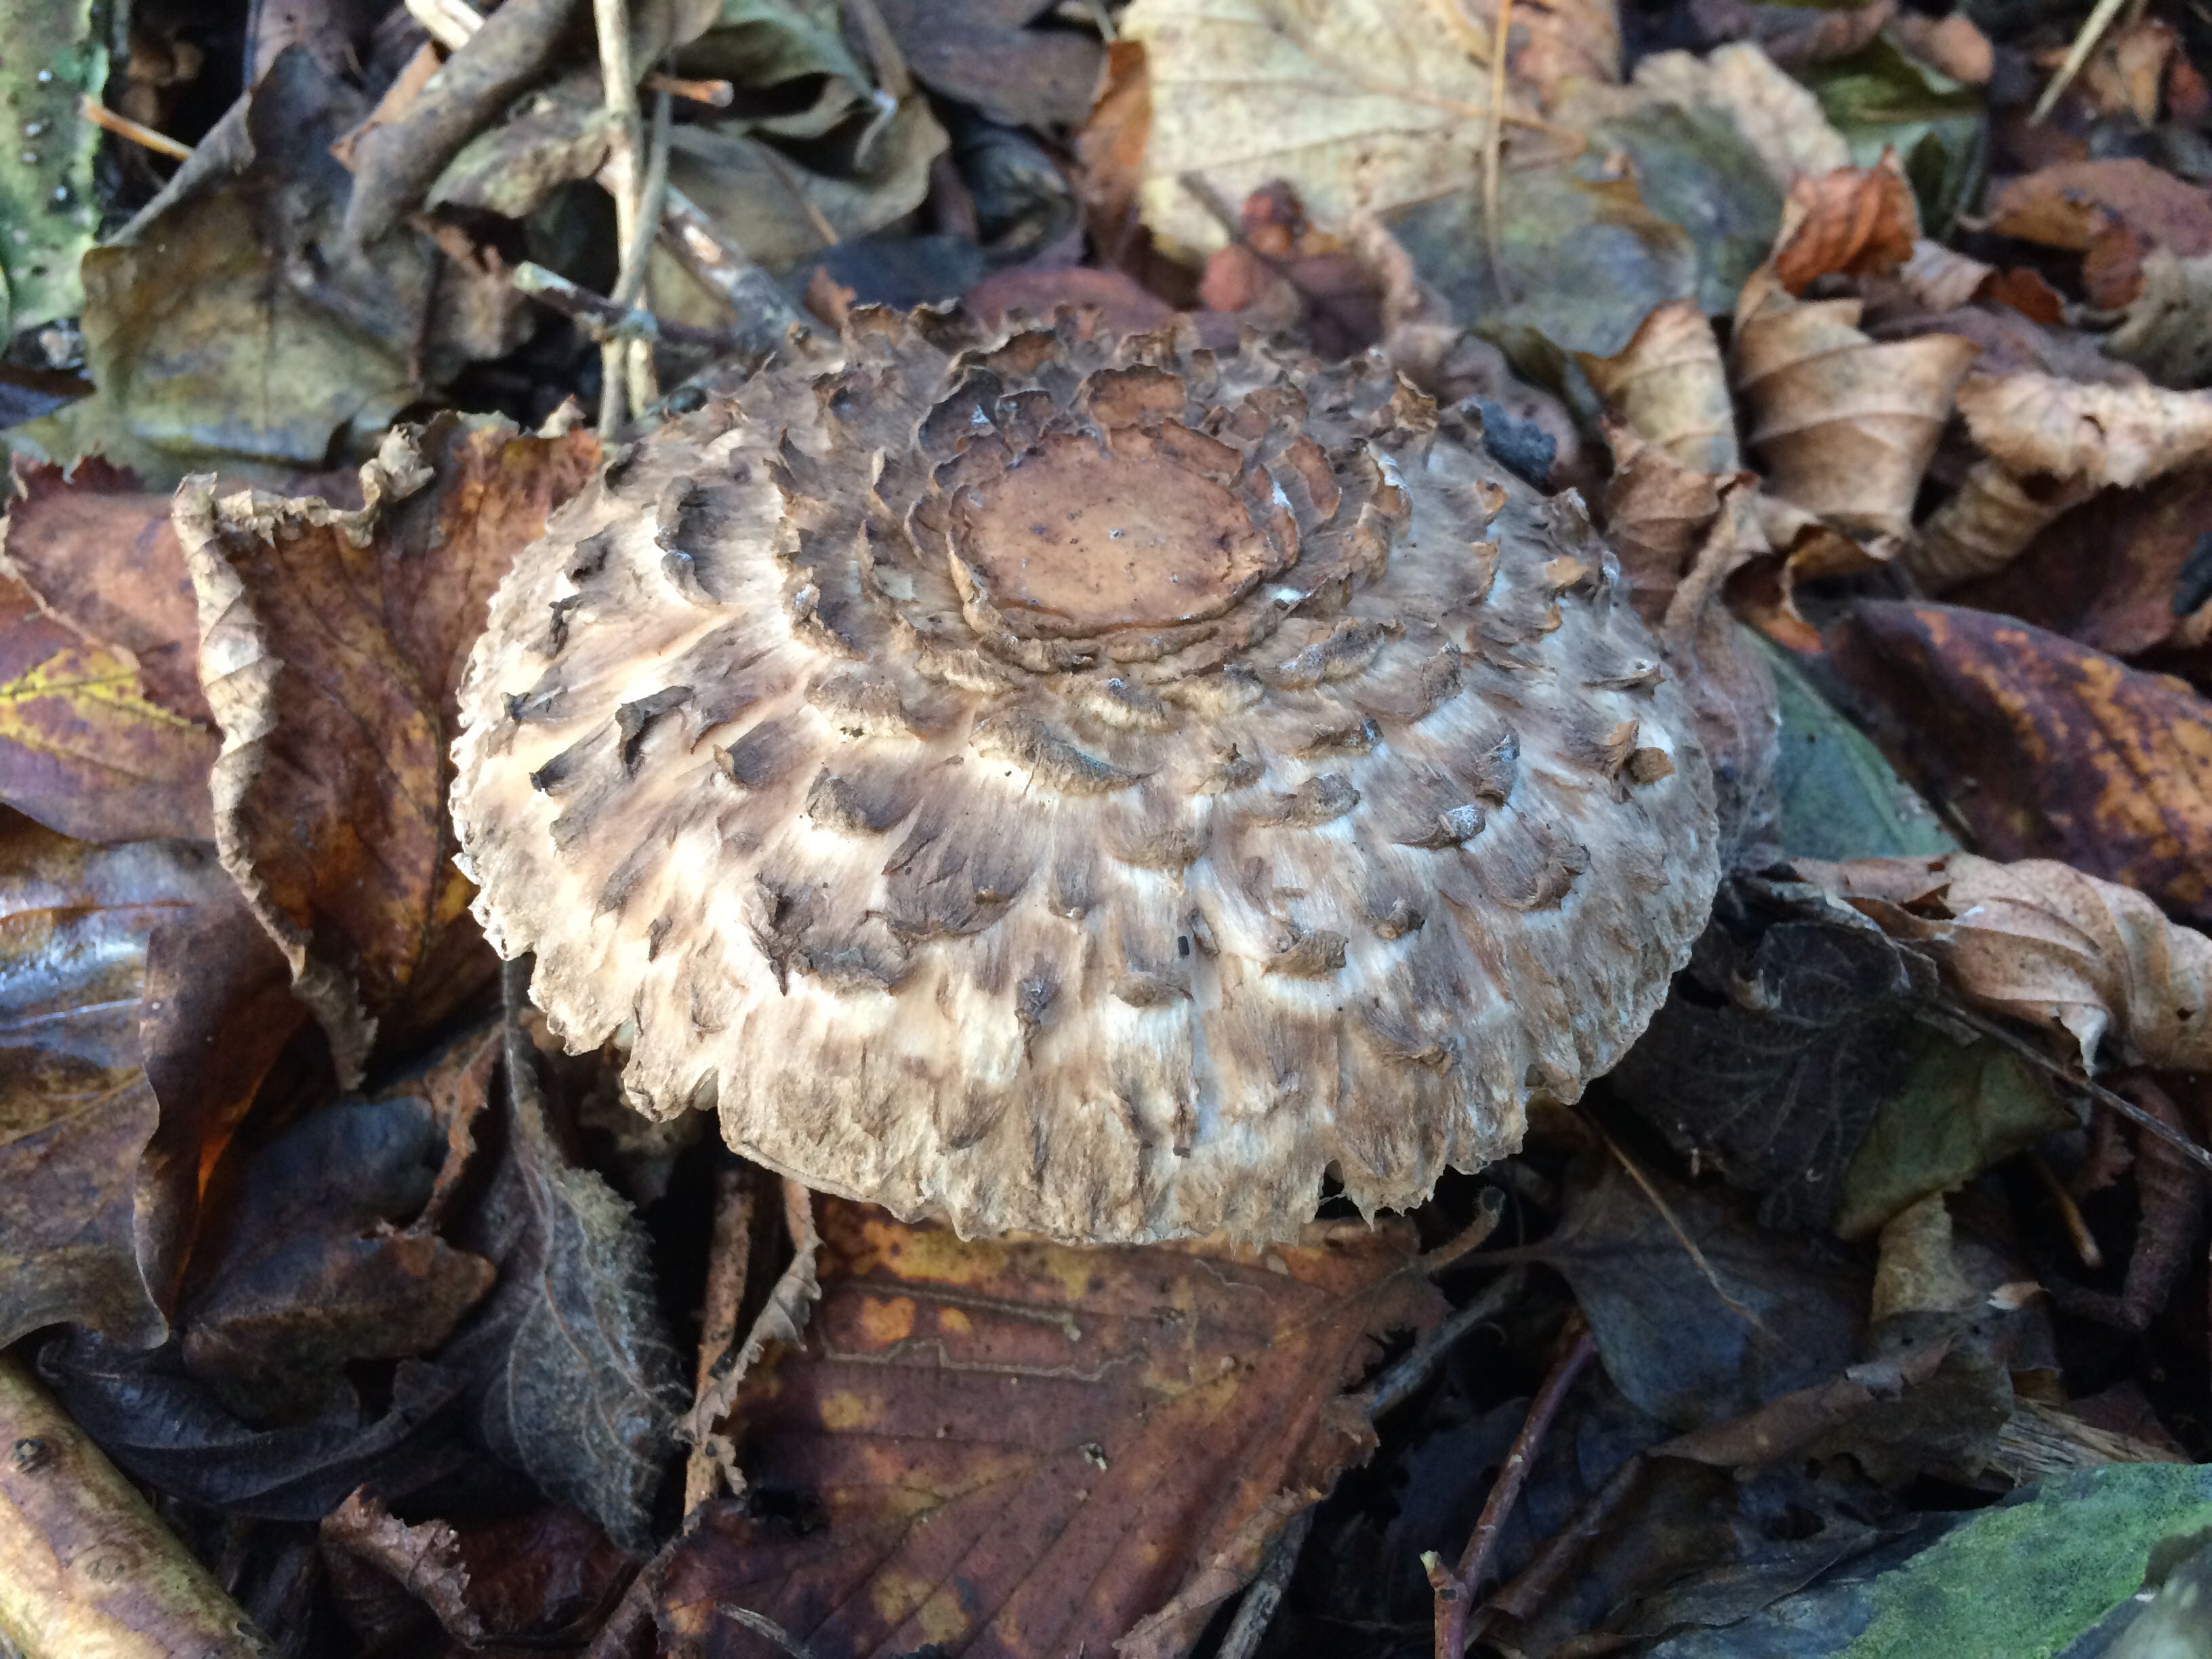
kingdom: Fungi
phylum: Basidiomycota
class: Agaricomycetes
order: Agaricales
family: Agaricaceae
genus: Chlorophyllum
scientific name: Chlorophyllum
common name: rabarberhat
